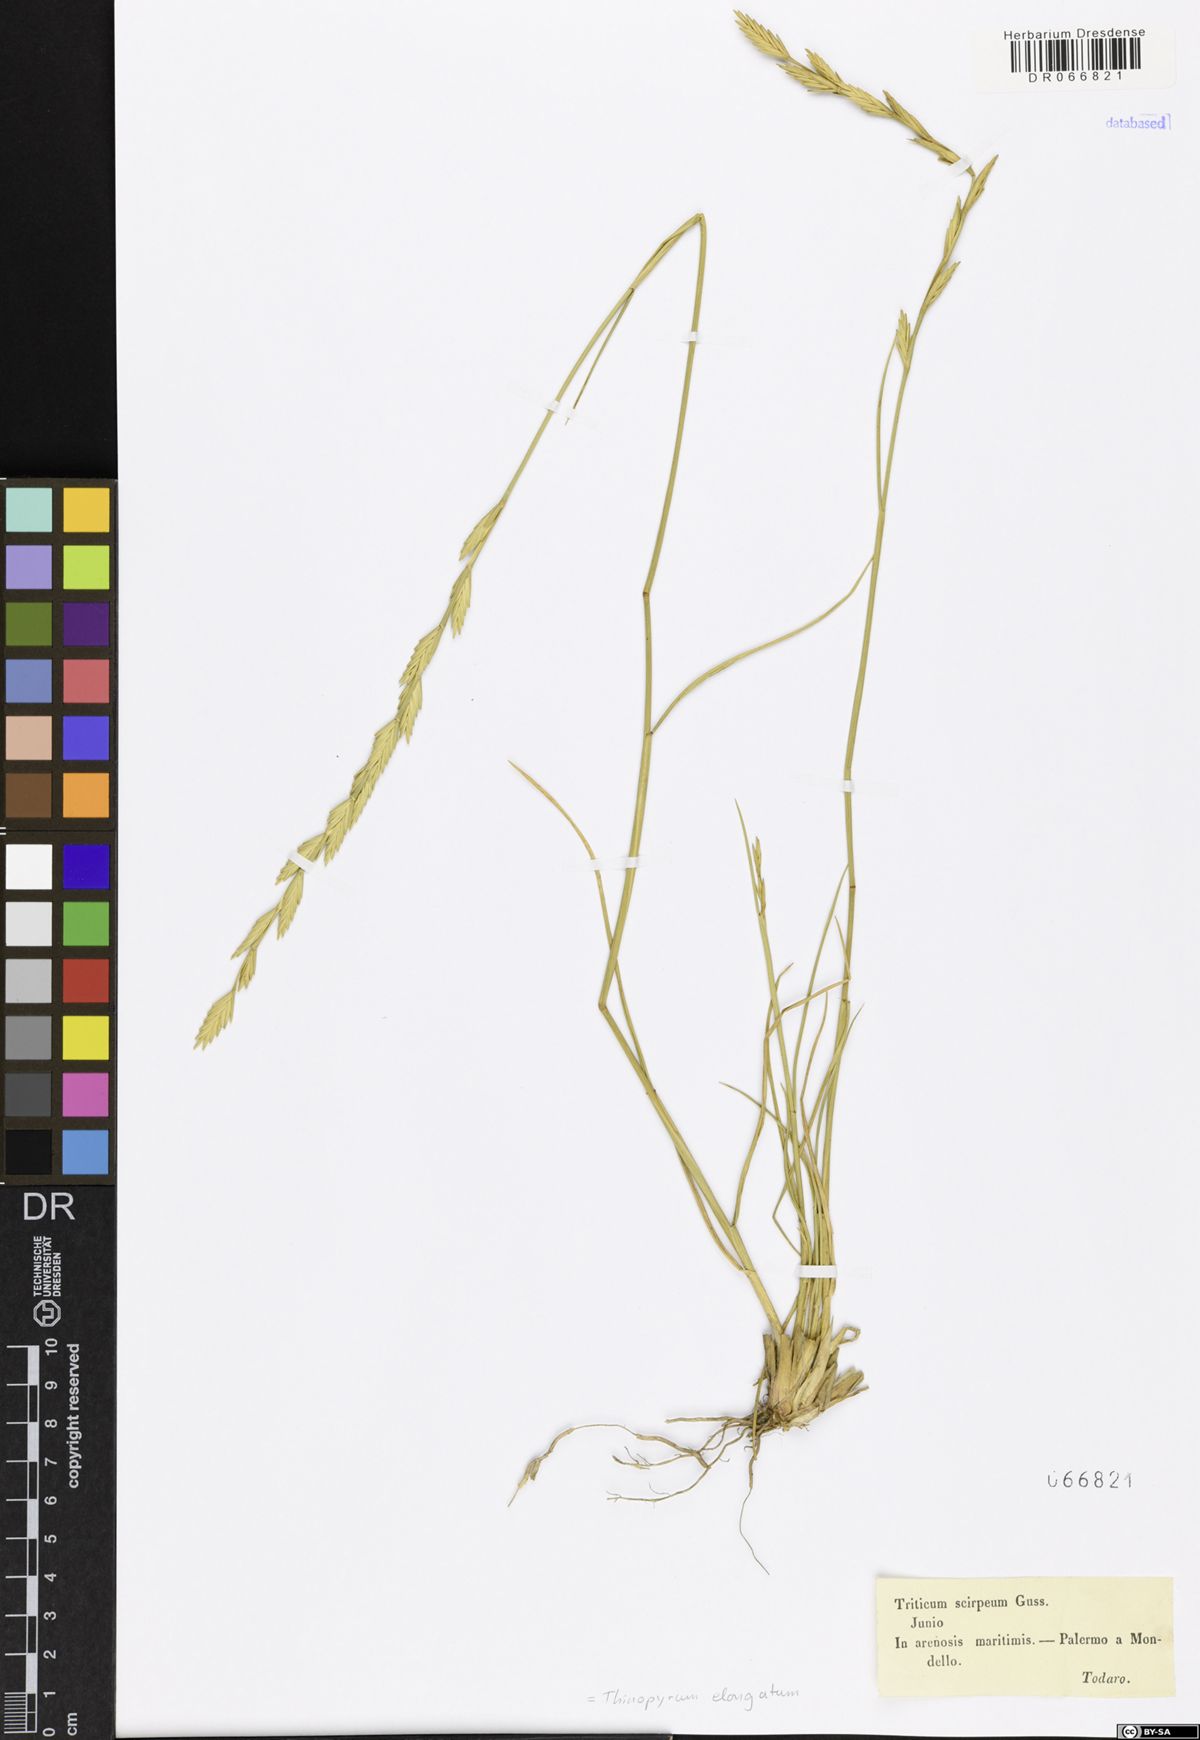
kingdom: Plantae
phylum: Tracheophyta
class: Liliopsida
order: Poales
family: Poaceae
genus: Thinopyrum
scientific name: Thinopyrum elongatum
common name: Tall wheatgrass
